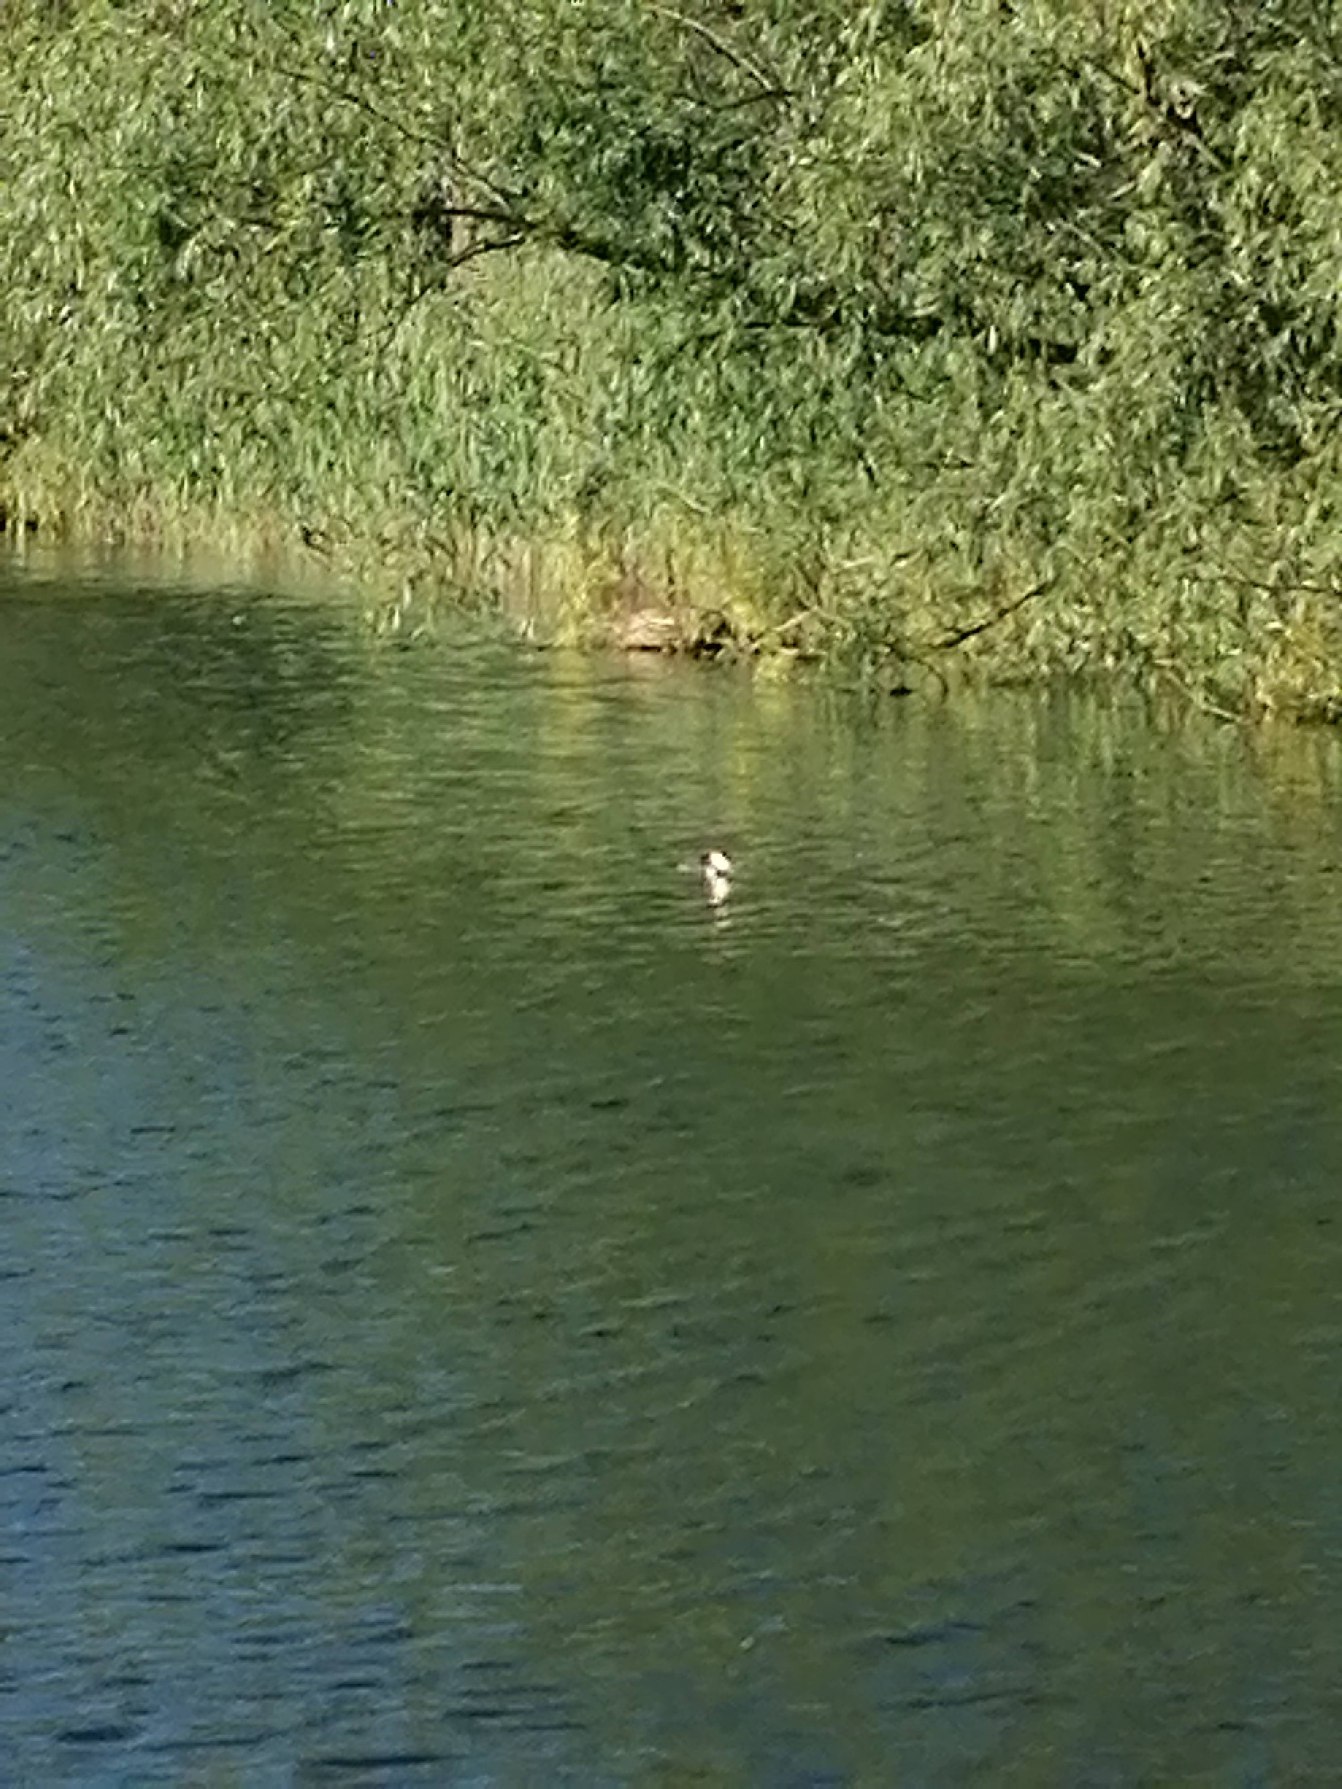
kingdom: Animalia
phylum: Chordata
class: Aves
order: Podicipediformes
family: Podicipedidae
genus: Podiceps
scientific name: Podiceps cristatus
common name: Toppet lappedykker
